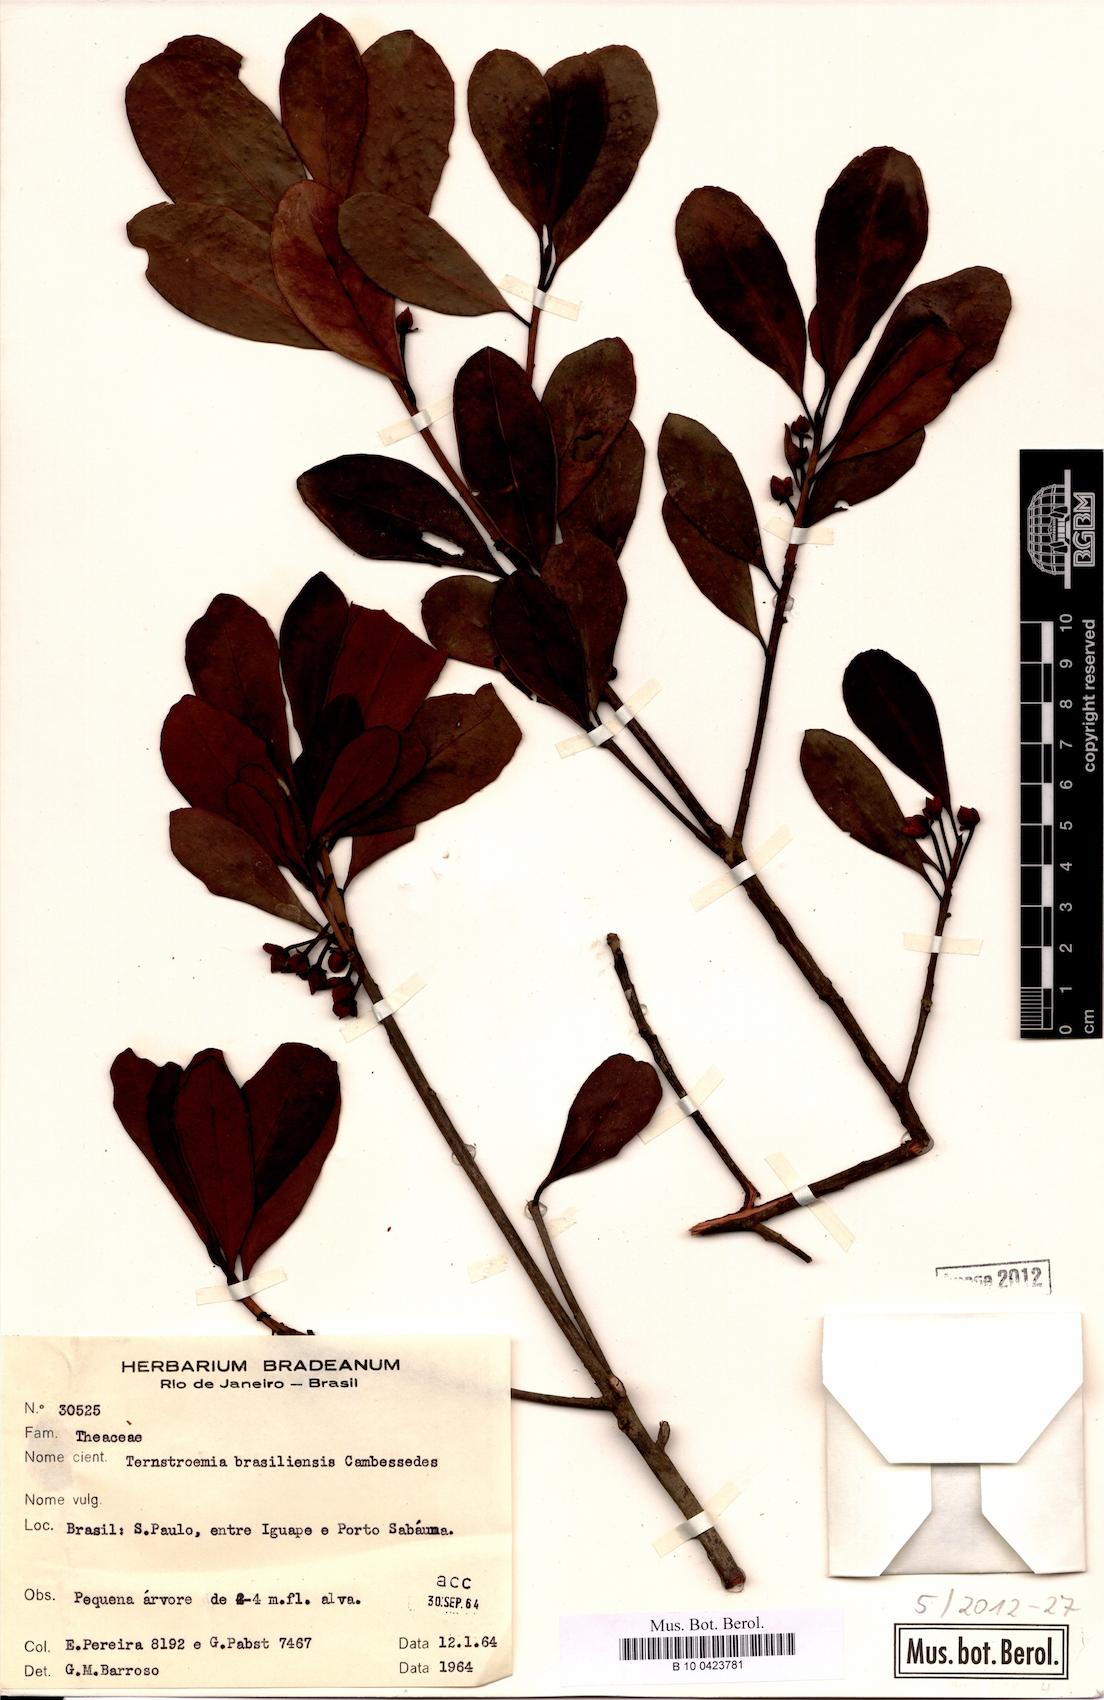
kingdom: Plantae
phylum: Tracheophyta
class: Magnoliopsida
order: Ericales
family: Pentaphylacaceae
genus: Ternstroemia
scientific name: Ternstroemia brasiliensis
